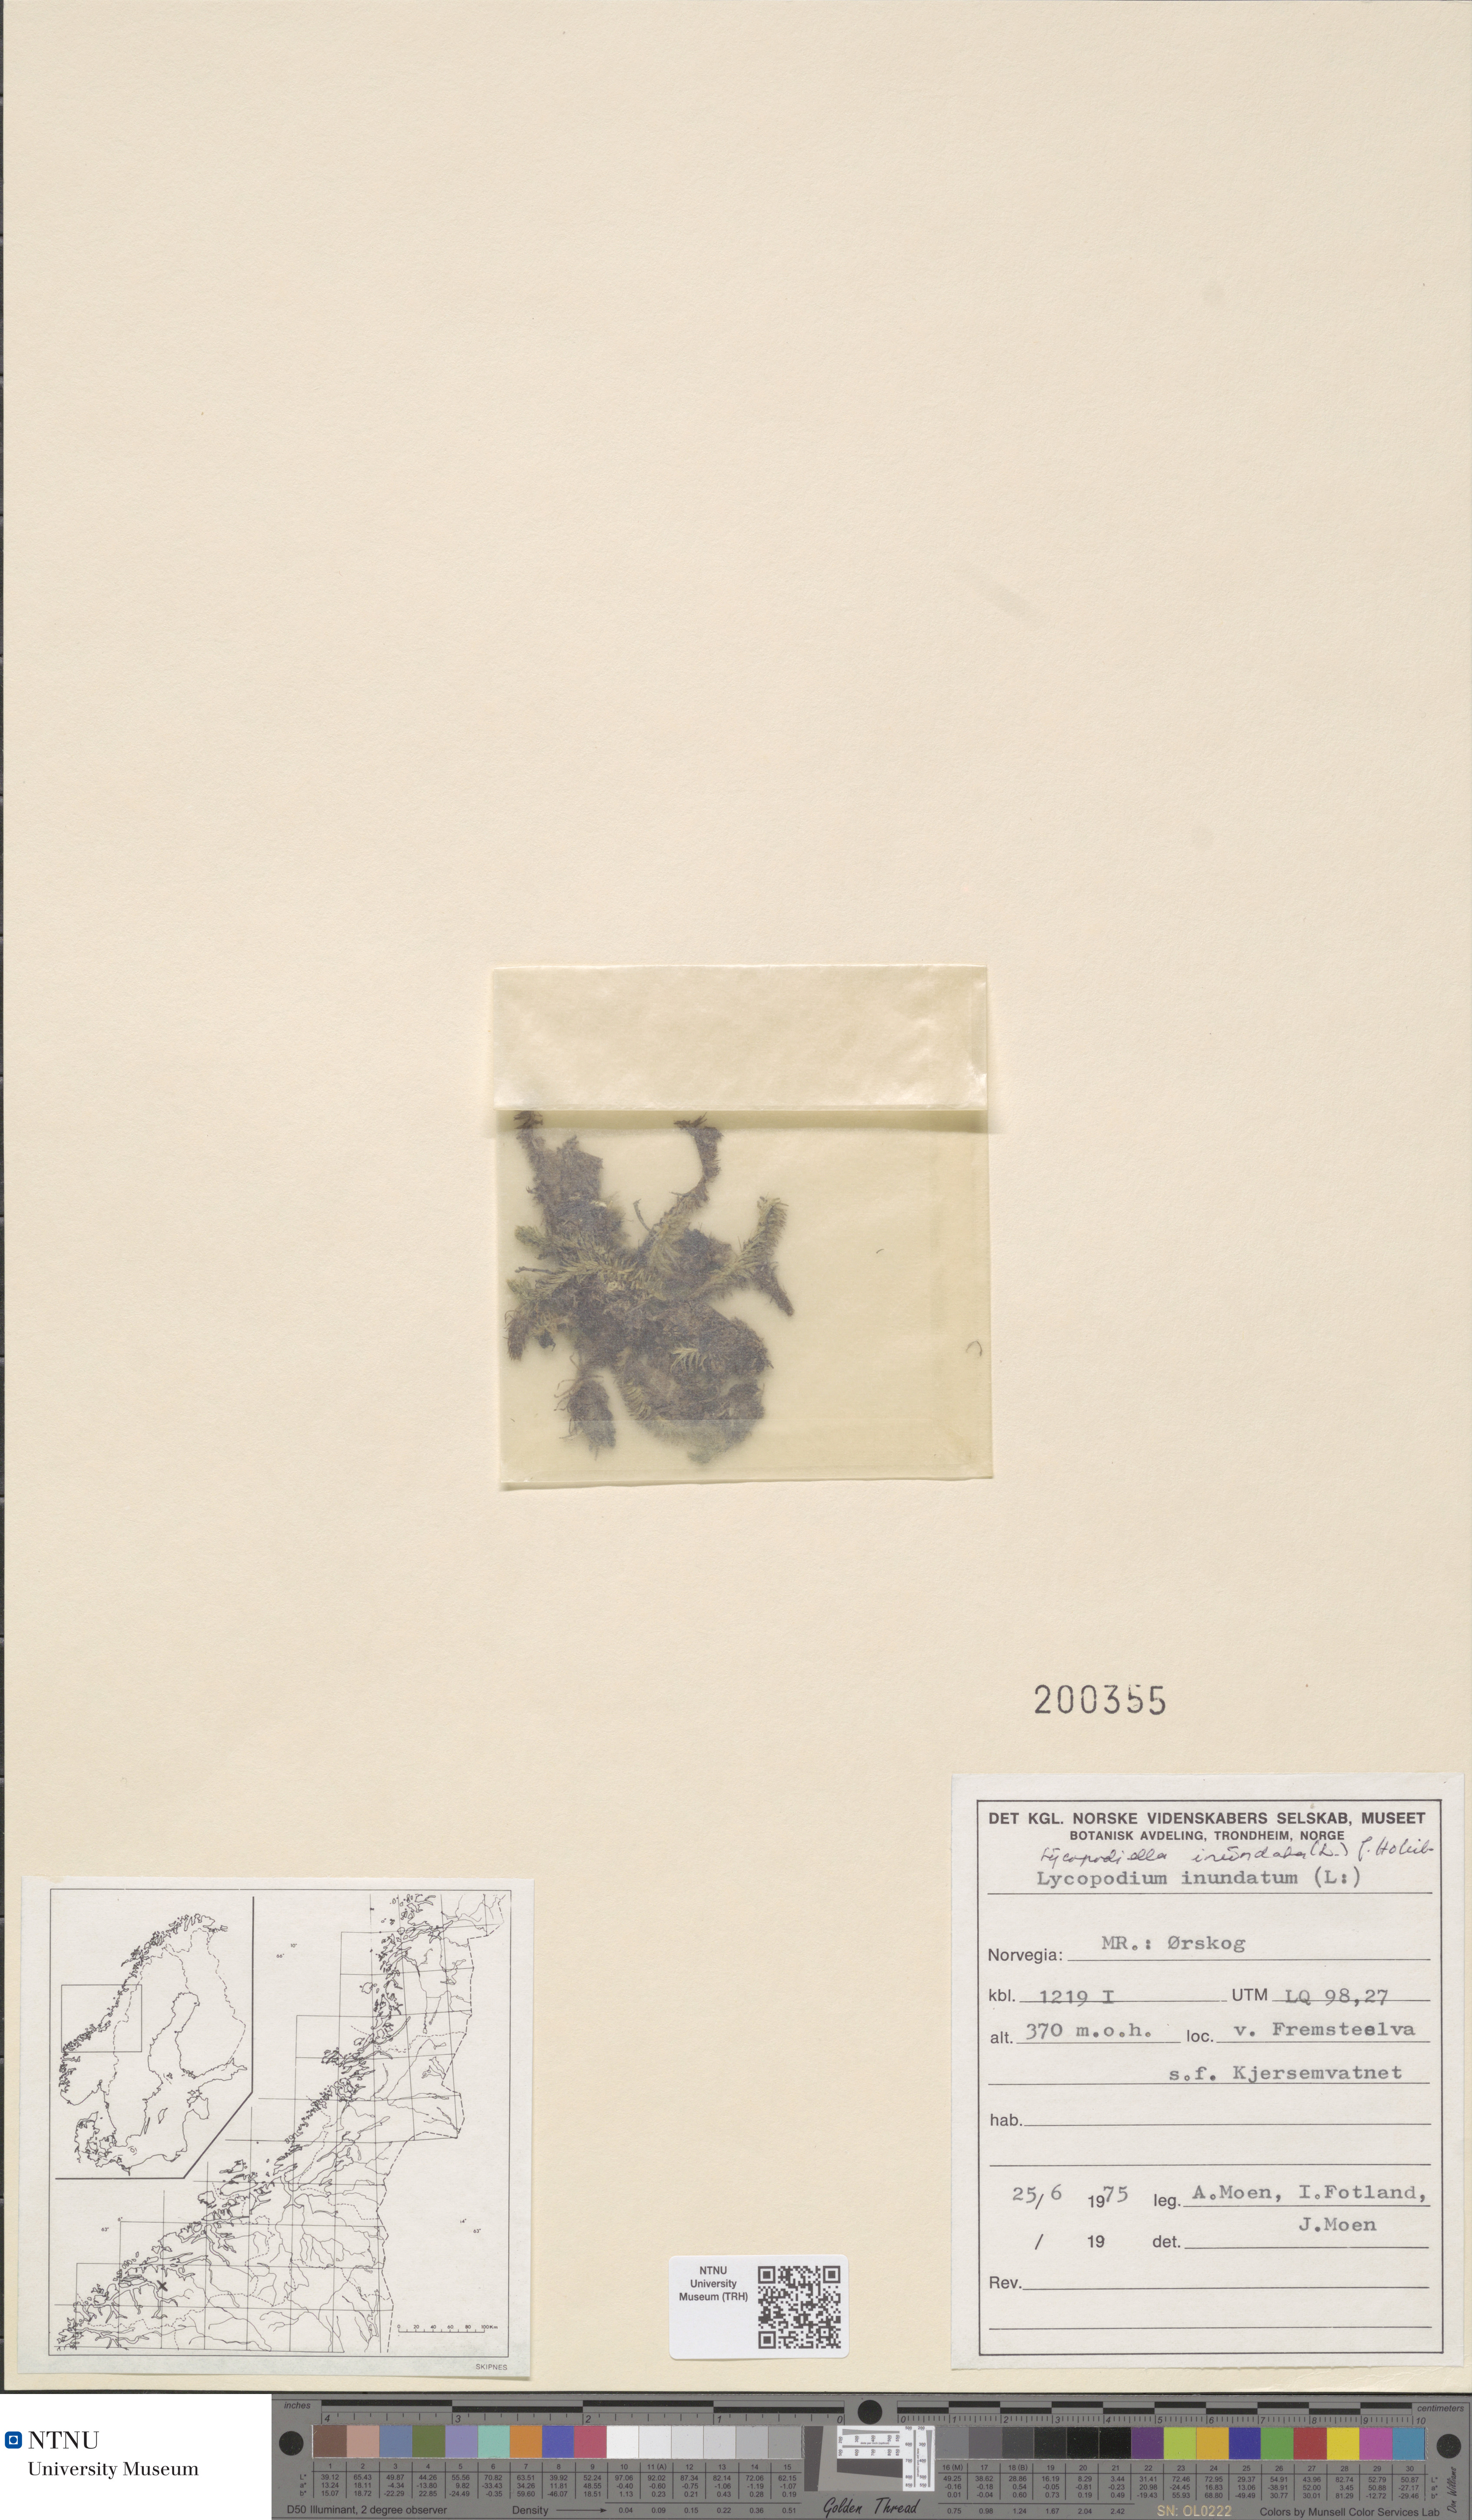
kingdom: Plantae
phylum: Tracheophyta
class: Lycopodiopsida
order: Lycopodiales
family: Lycopodiaceae
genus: Lycopodiella
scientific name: Lycopodiella inundata
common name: Marsh clubmoss
